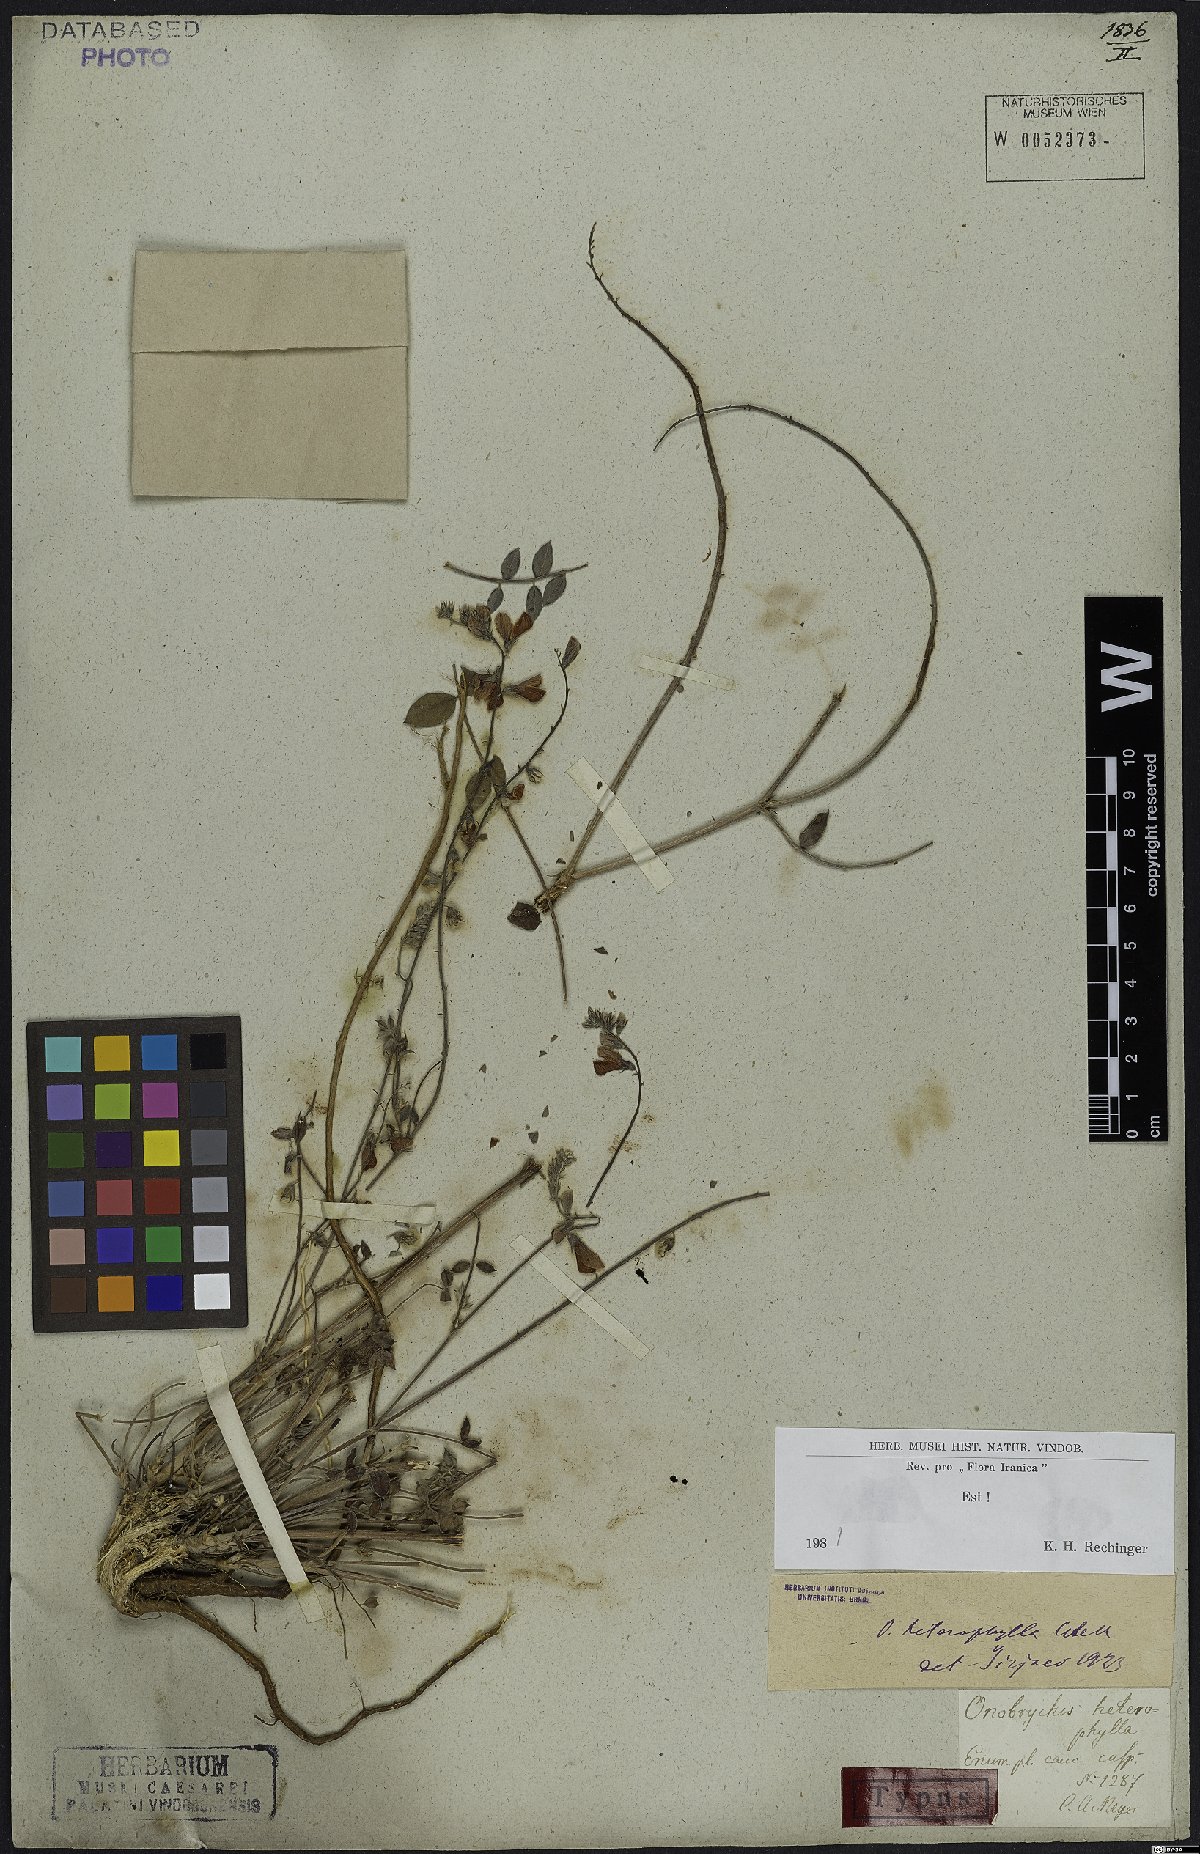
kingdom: Plantae
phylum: Tracheophyta
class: Magnoliopsida
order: Fabales
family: Fabaceae
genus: Onobrychis
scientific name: Onobrychis heterophylla
